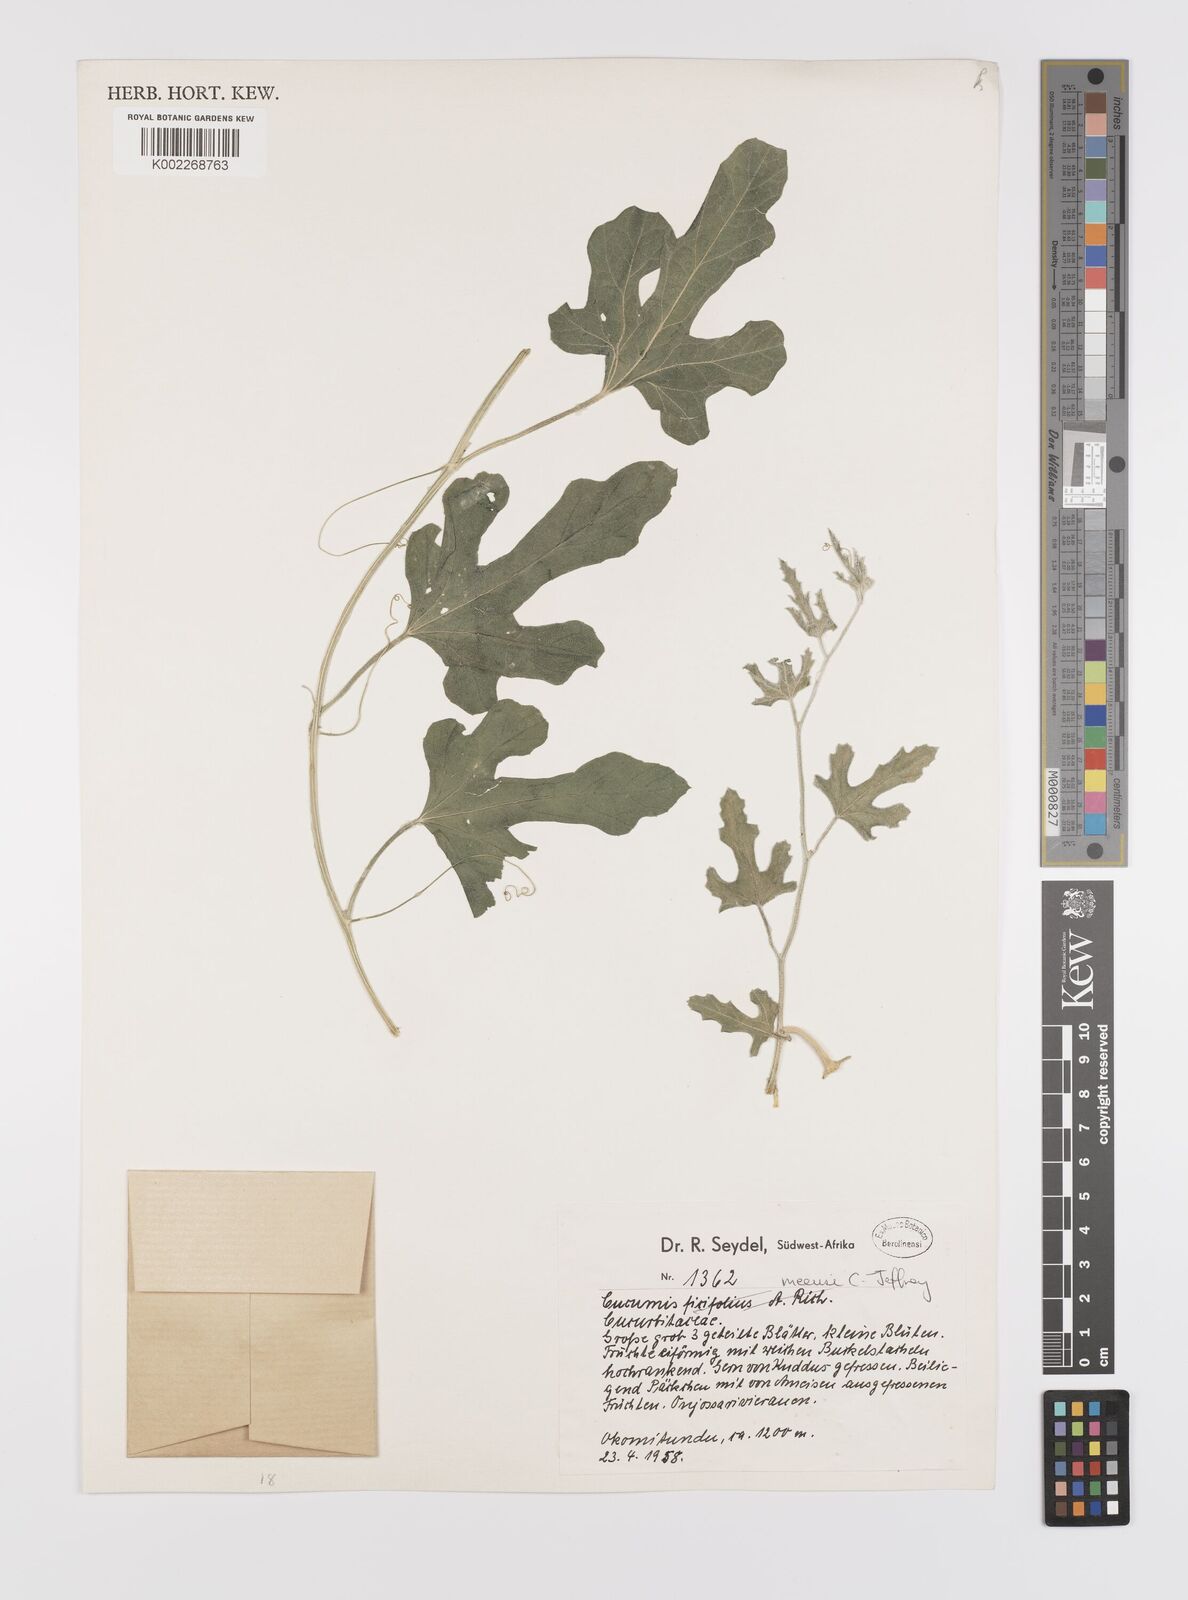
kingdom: Plantae
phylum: Tracheophyta
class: Magnoliopsida
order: Cucurbitales
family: Cucurbitaceae
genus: Cucumis
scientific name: Cucumis meeusei
